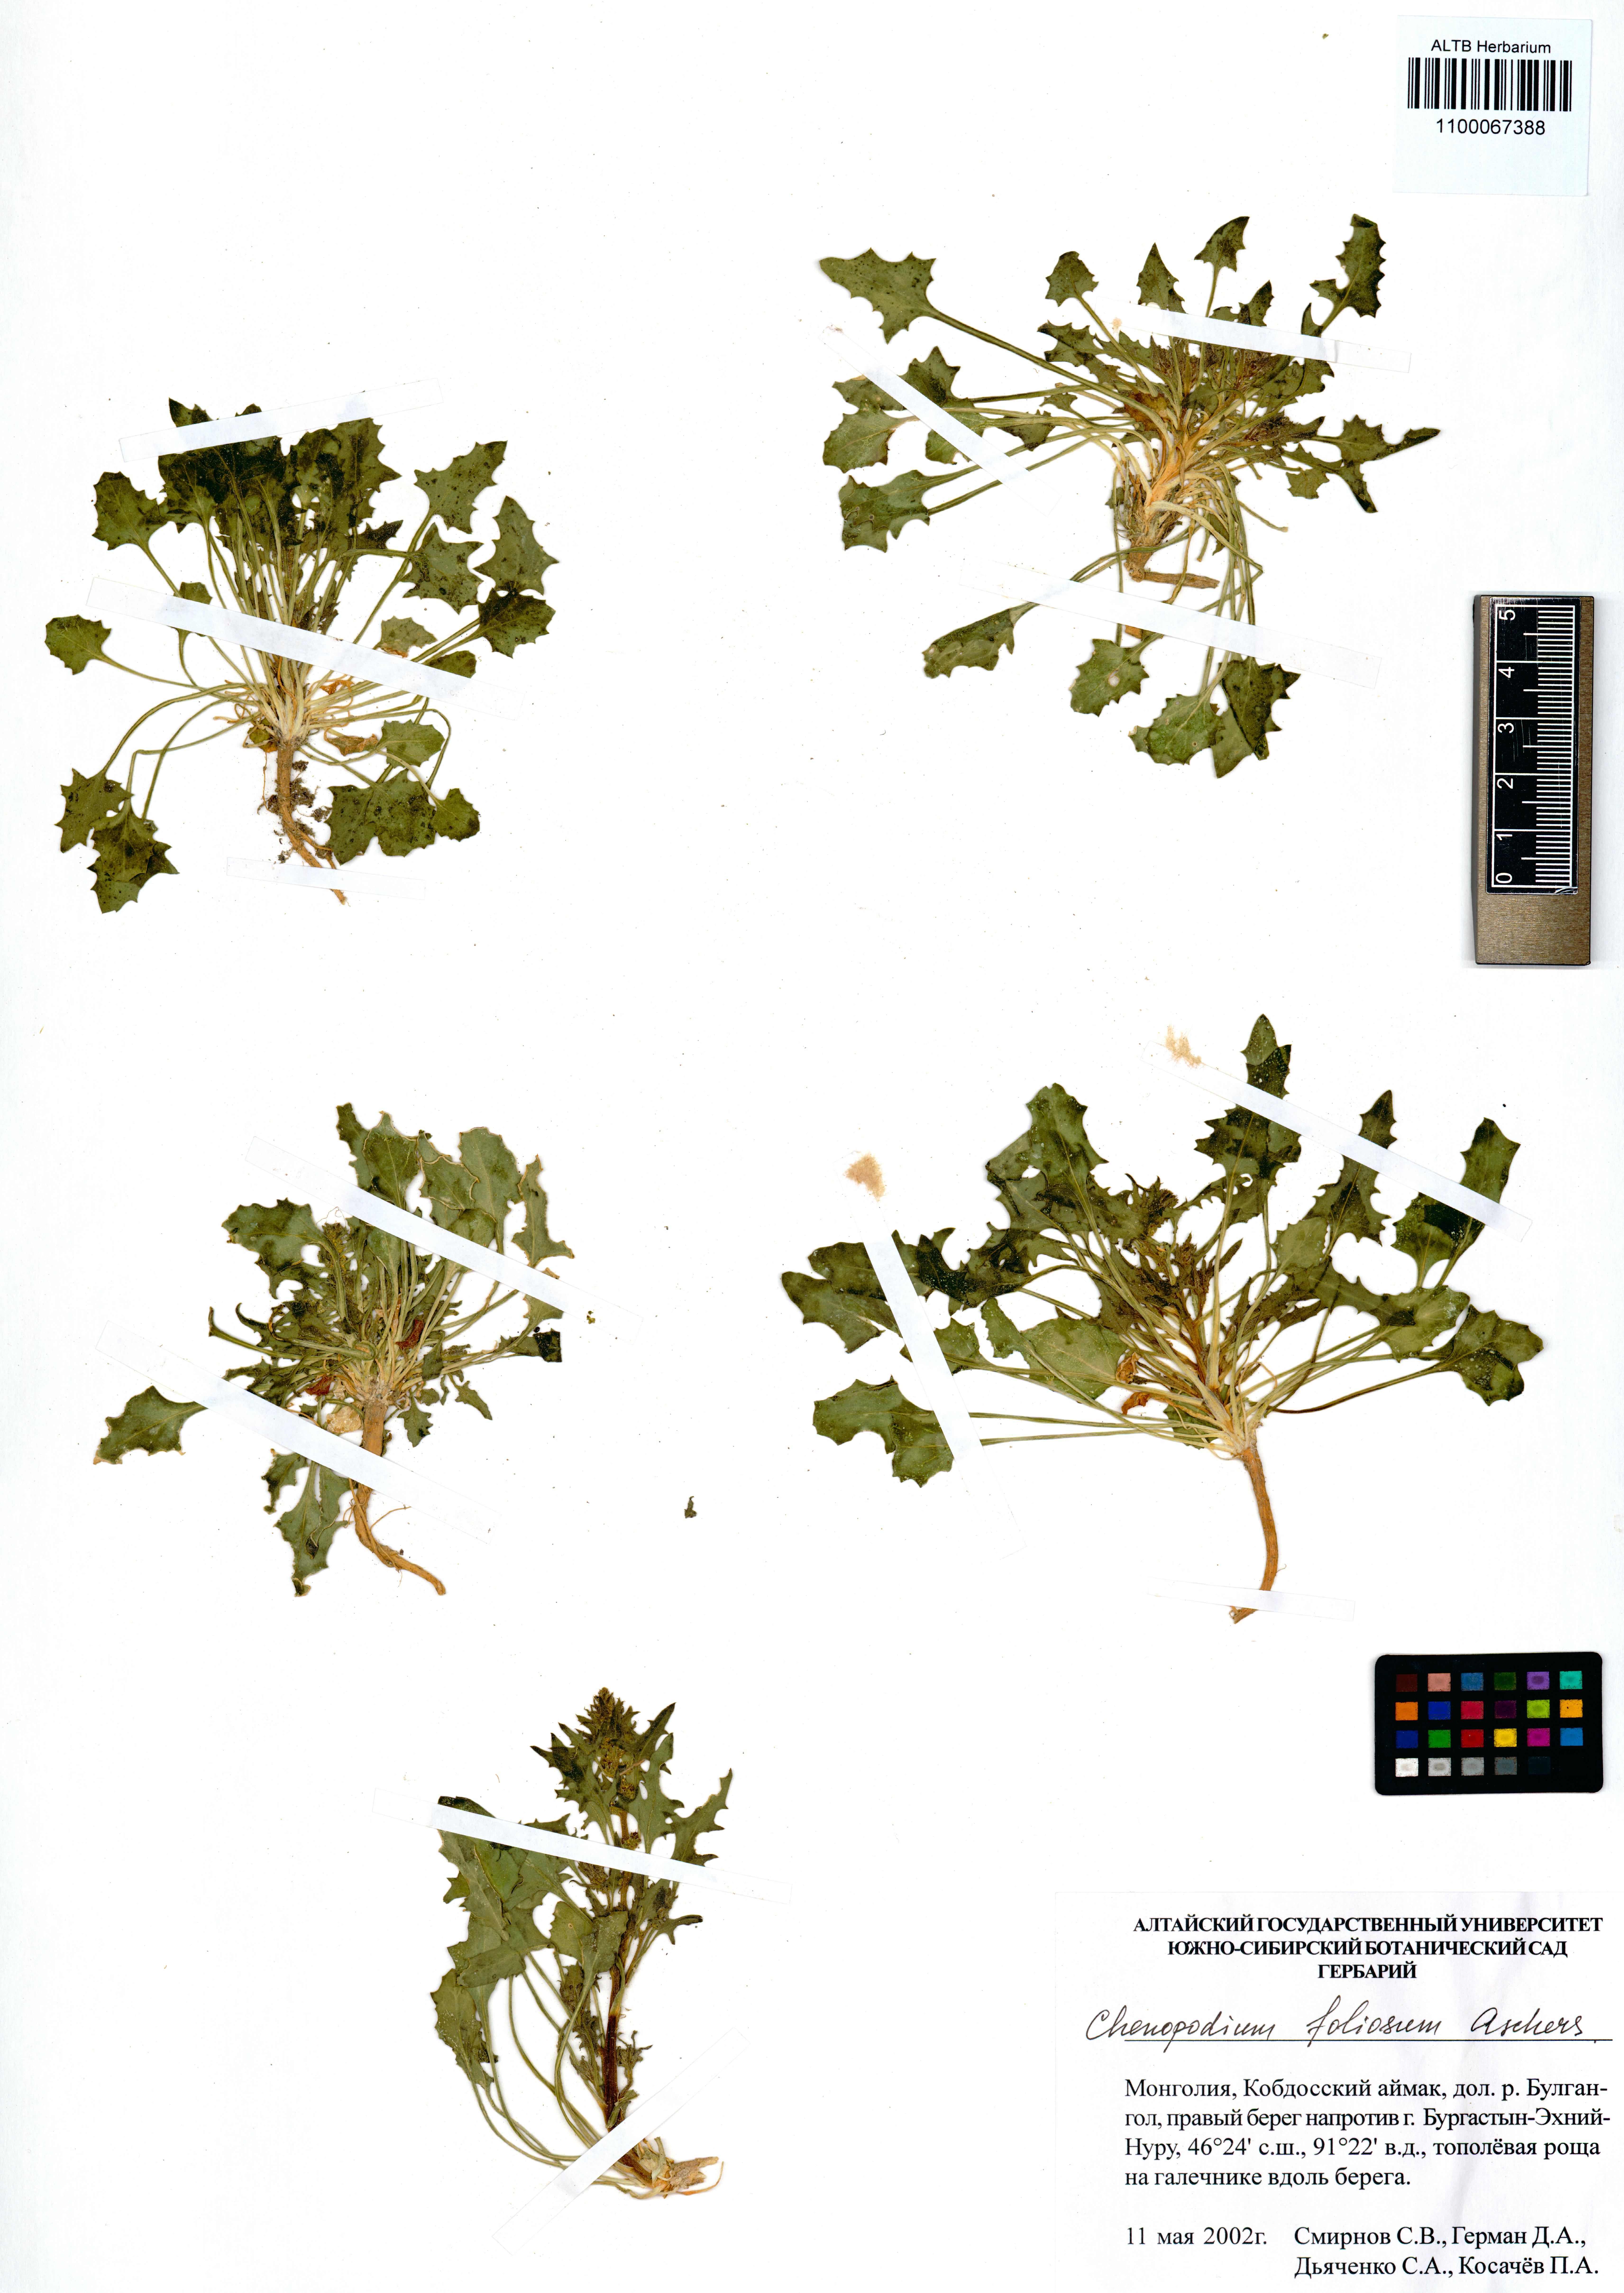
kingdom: Plantae
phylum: Tracheophyta
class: Magnoliopsida
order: Caryophyllales
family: Amaranthaceae
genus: Blitum
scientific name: Blitum virgatum
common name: Strawberry goosefoot
